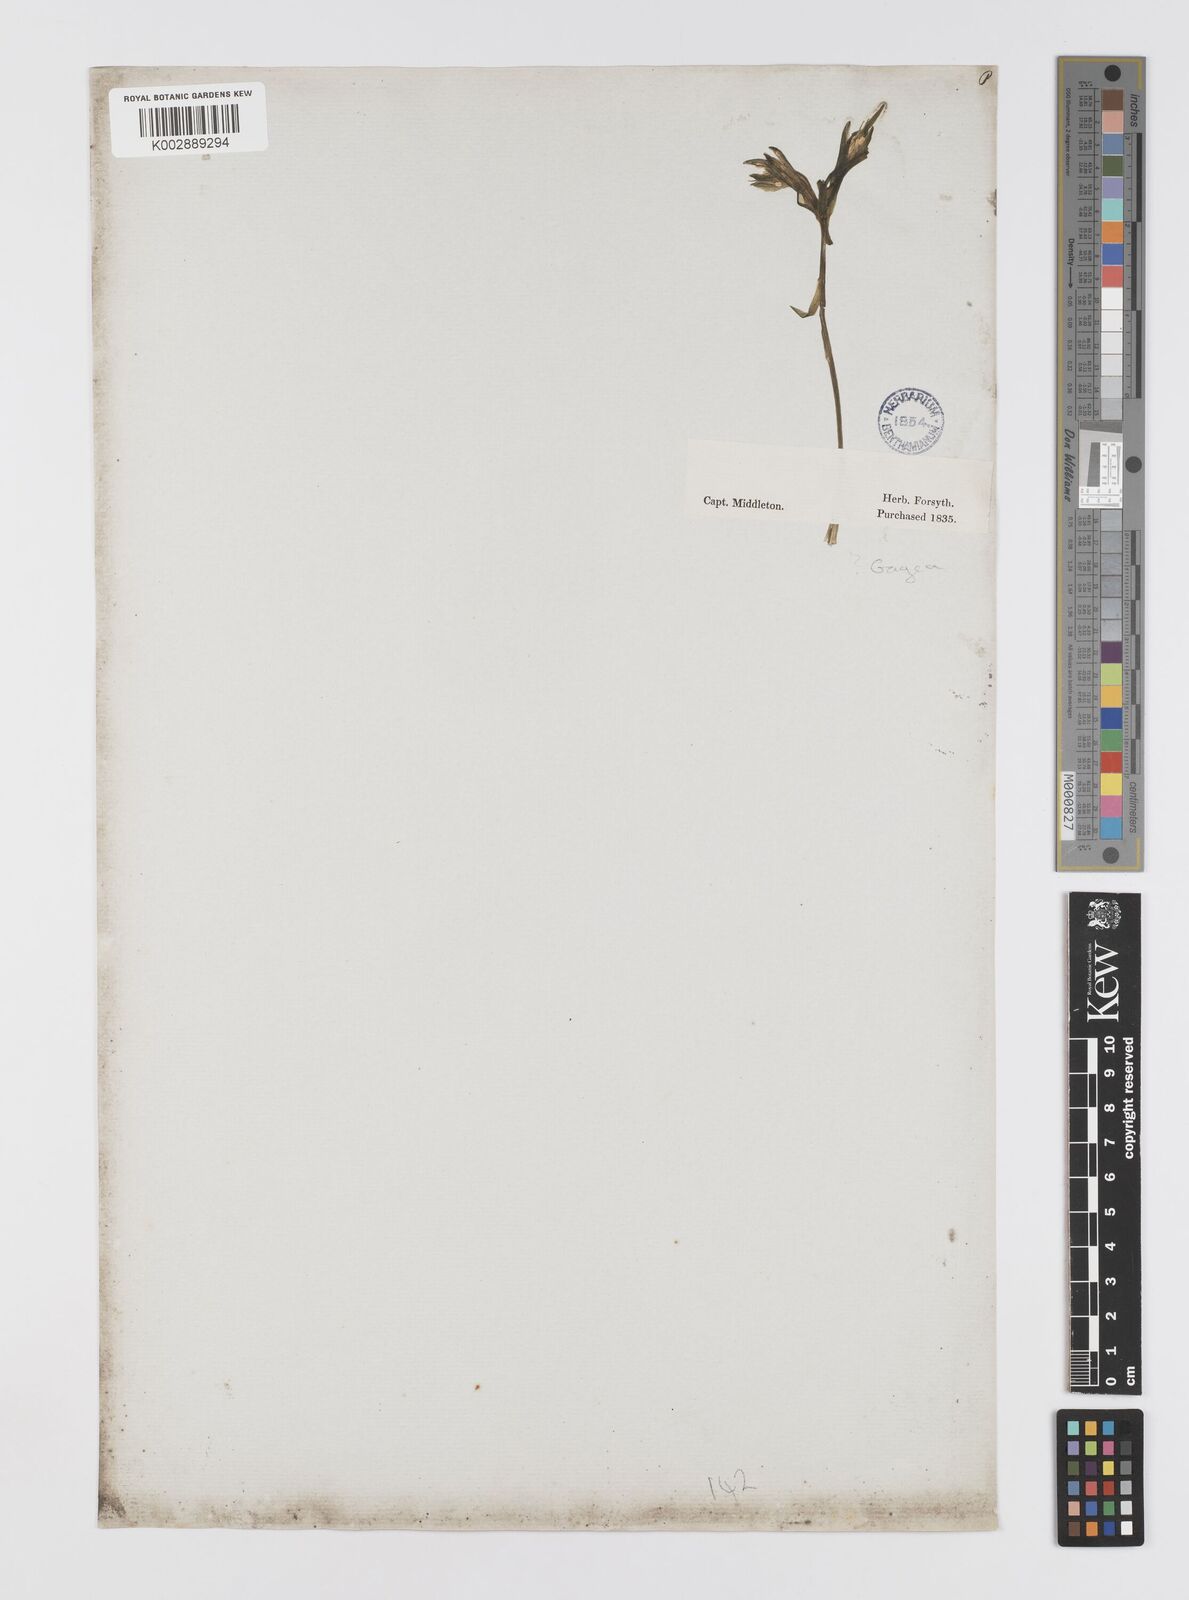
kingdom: Plantae
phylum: Tracheophyta
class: Liliopsida
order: Liliales
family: Liliaceae
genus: Gagea
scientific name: Gagea
